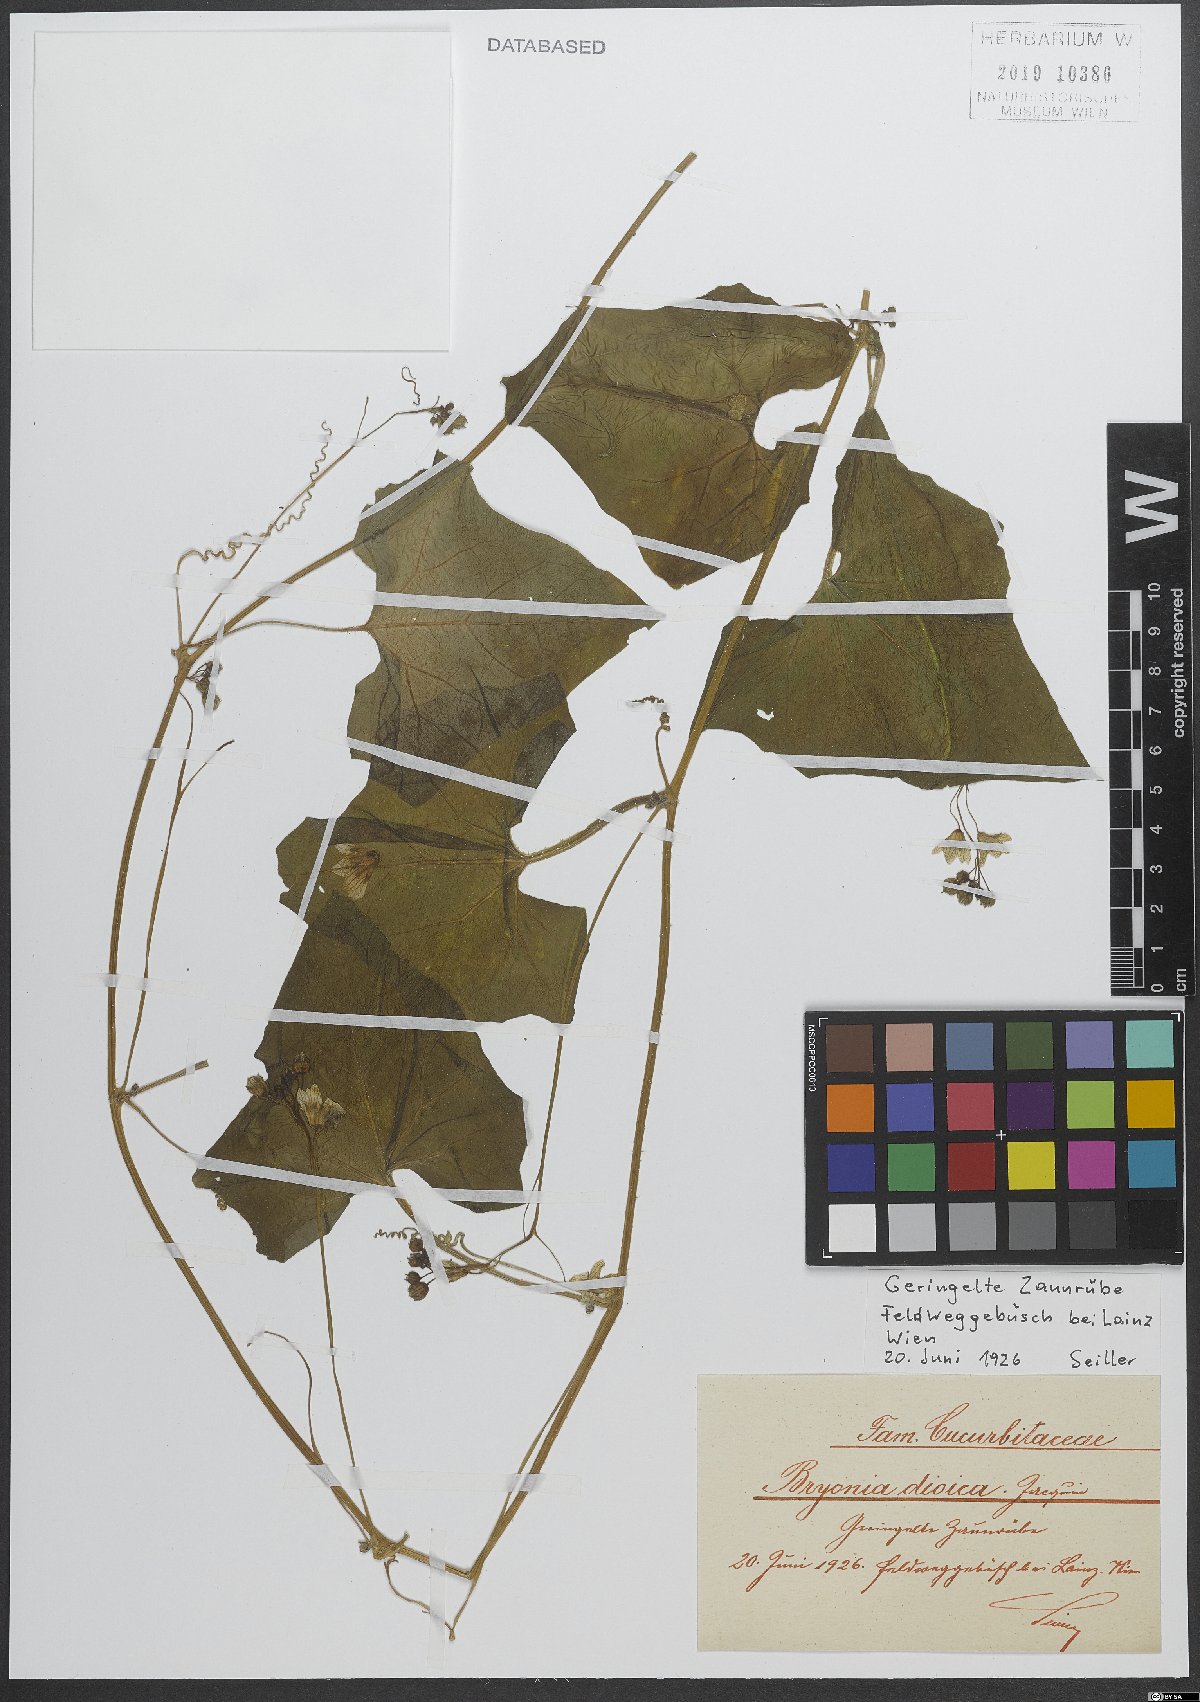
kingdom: Plantae
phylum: Tracheophyta
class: Magnoliopsida
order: Cucurbitales
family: Cucurbitaceae
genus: Bryonia
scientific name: Bryonia dioica
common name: White bryony
